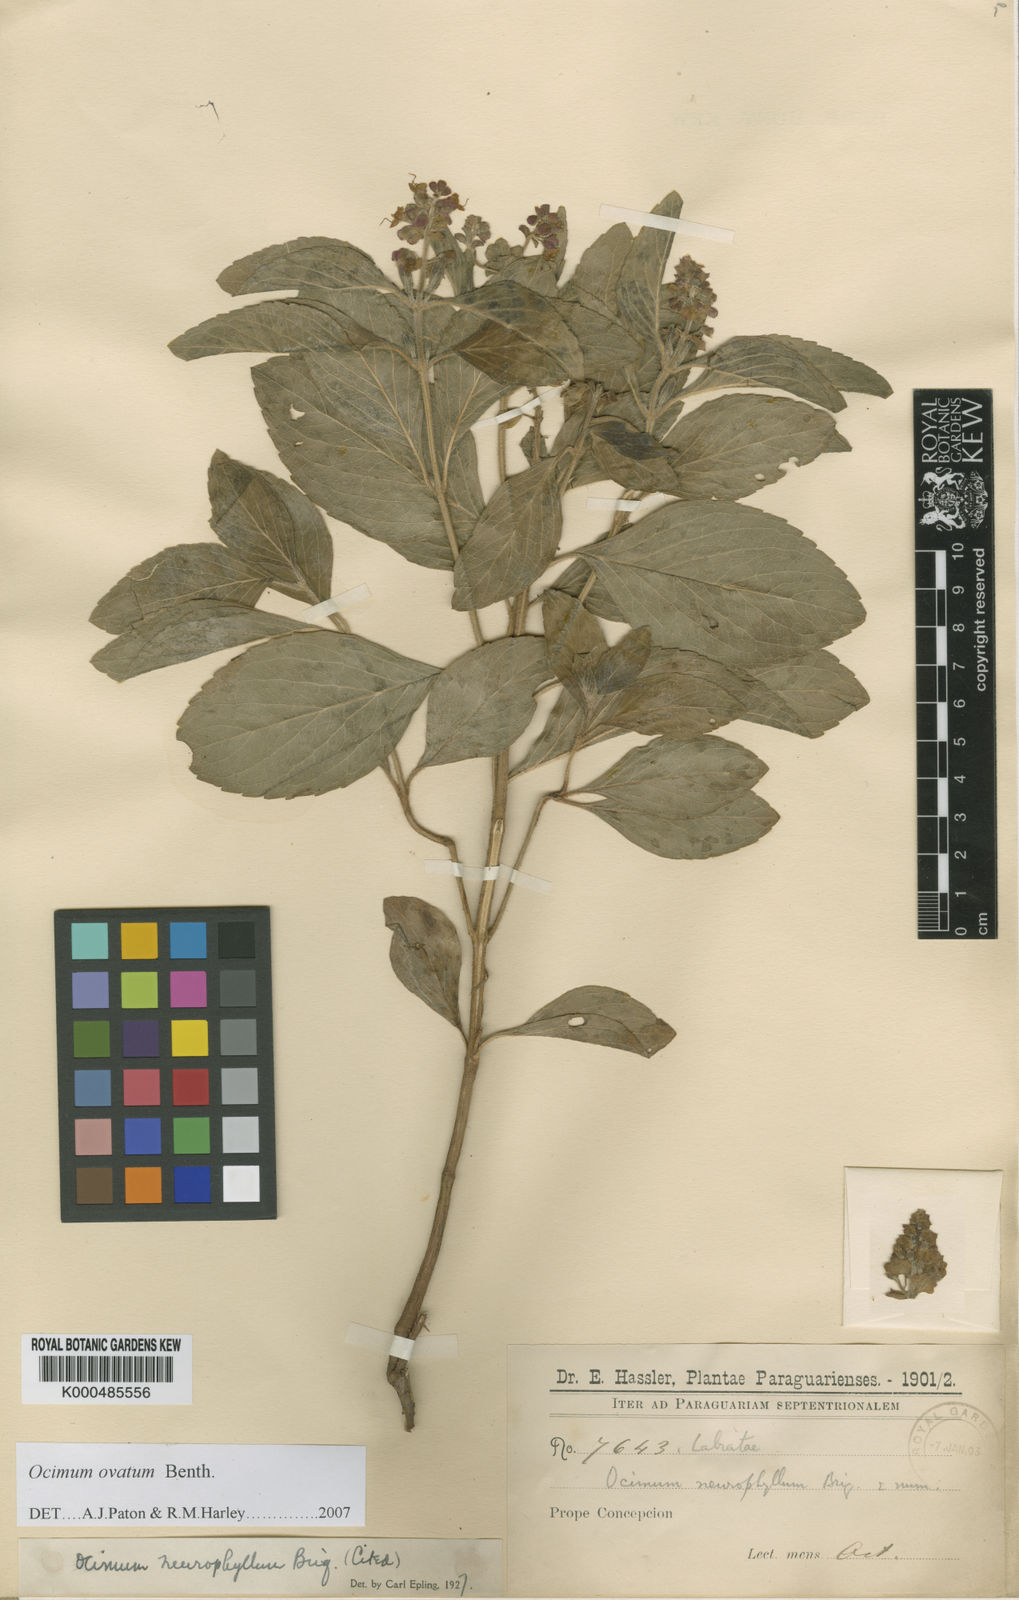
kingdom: Plantae
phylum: Tracheophyta
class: Magnoliopsida
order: Lamiales
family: Lamiaceae
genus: Ocimum
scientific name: Ocimum ovatum
